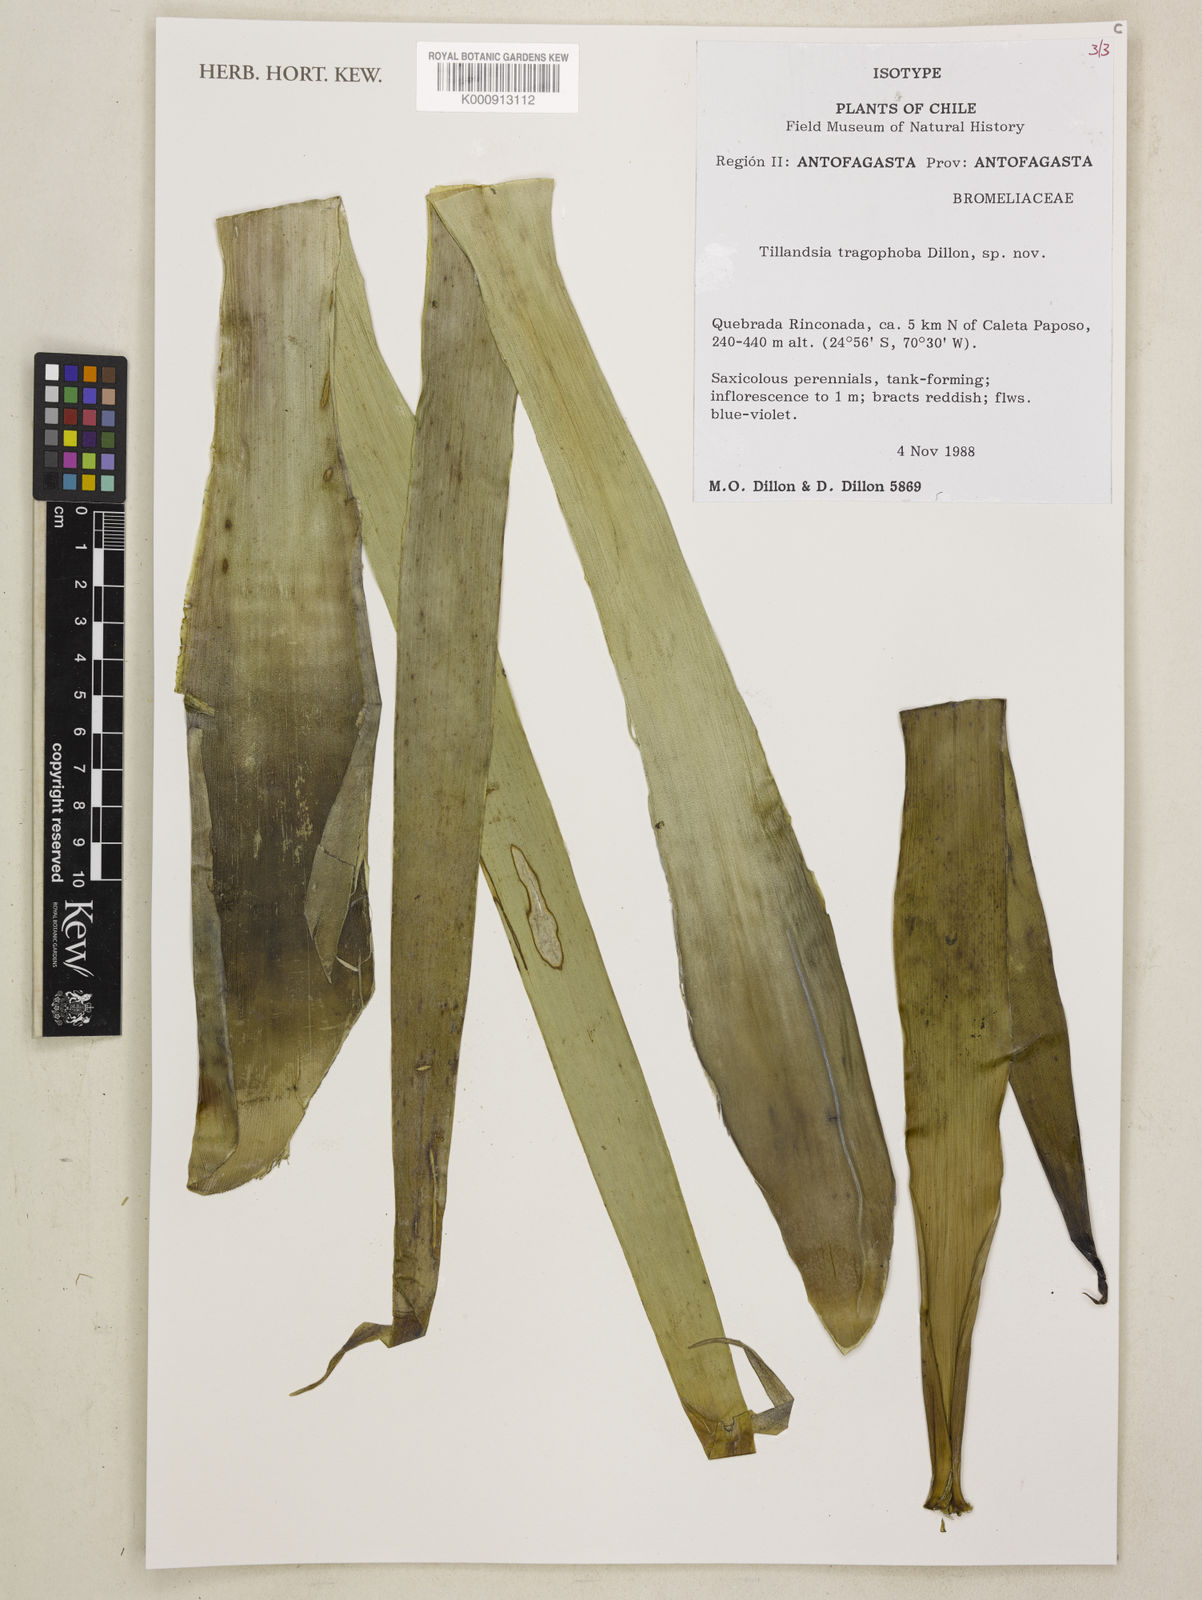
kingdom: Plantae
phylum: Tracheophyta
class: Liliopsida
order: Poales
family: Bromeliaceae
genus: Tillandsia
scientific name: Tillandsia tragophoba
